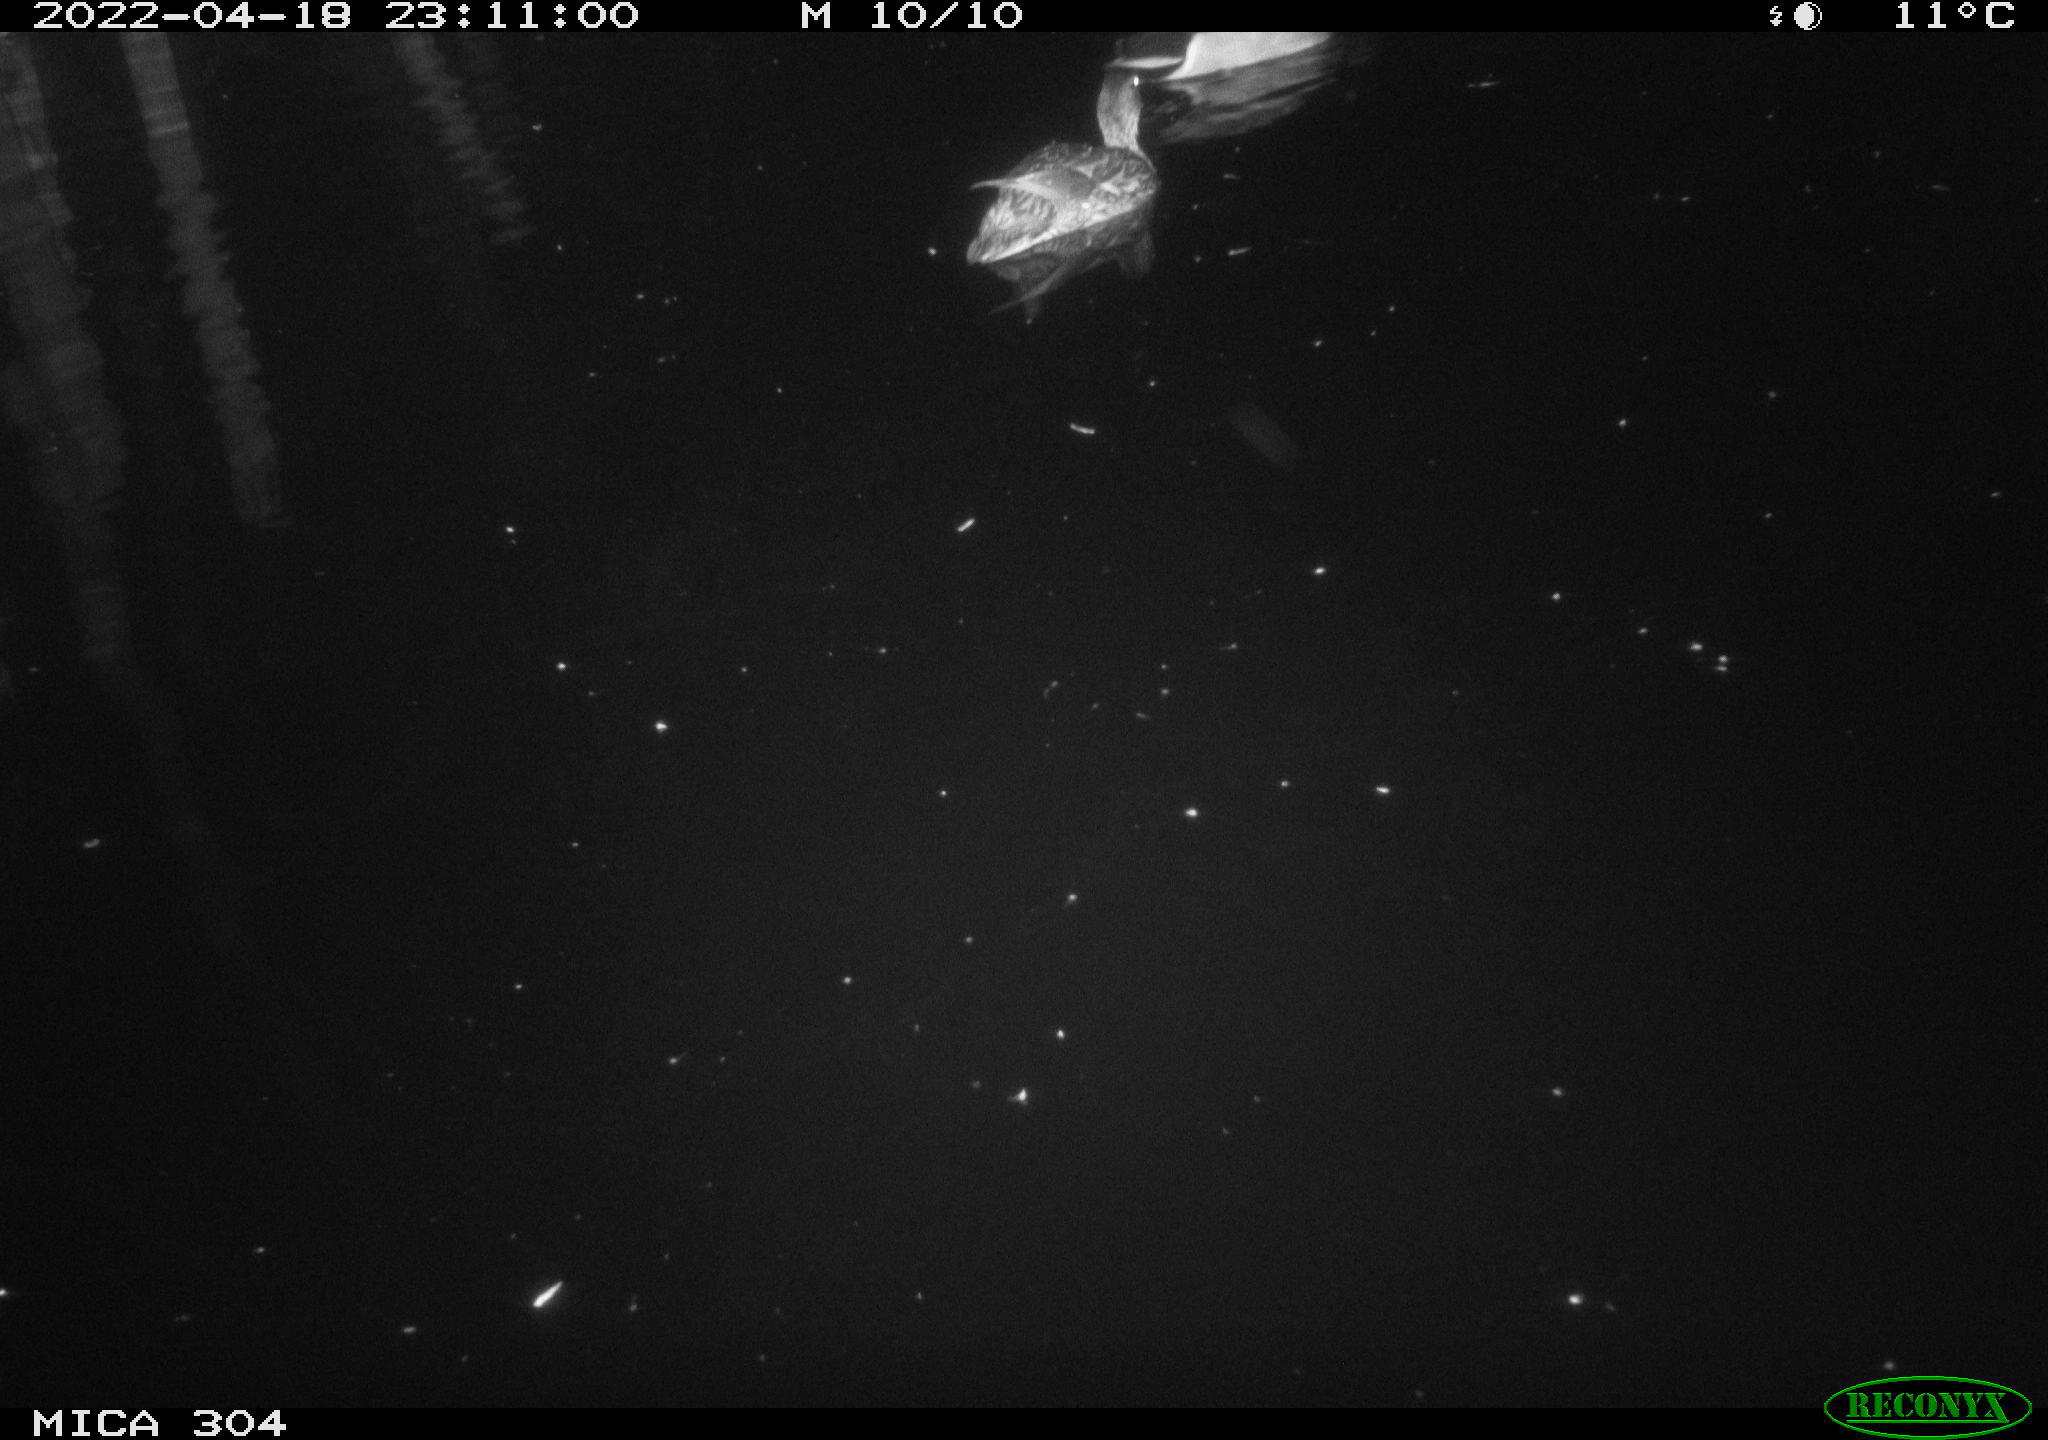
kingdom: Animalia
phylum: Chordata
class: Aves
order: Anseriformes
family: Anatidae
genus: Anas
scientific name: Anas platyrhynchos
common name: Mallard
